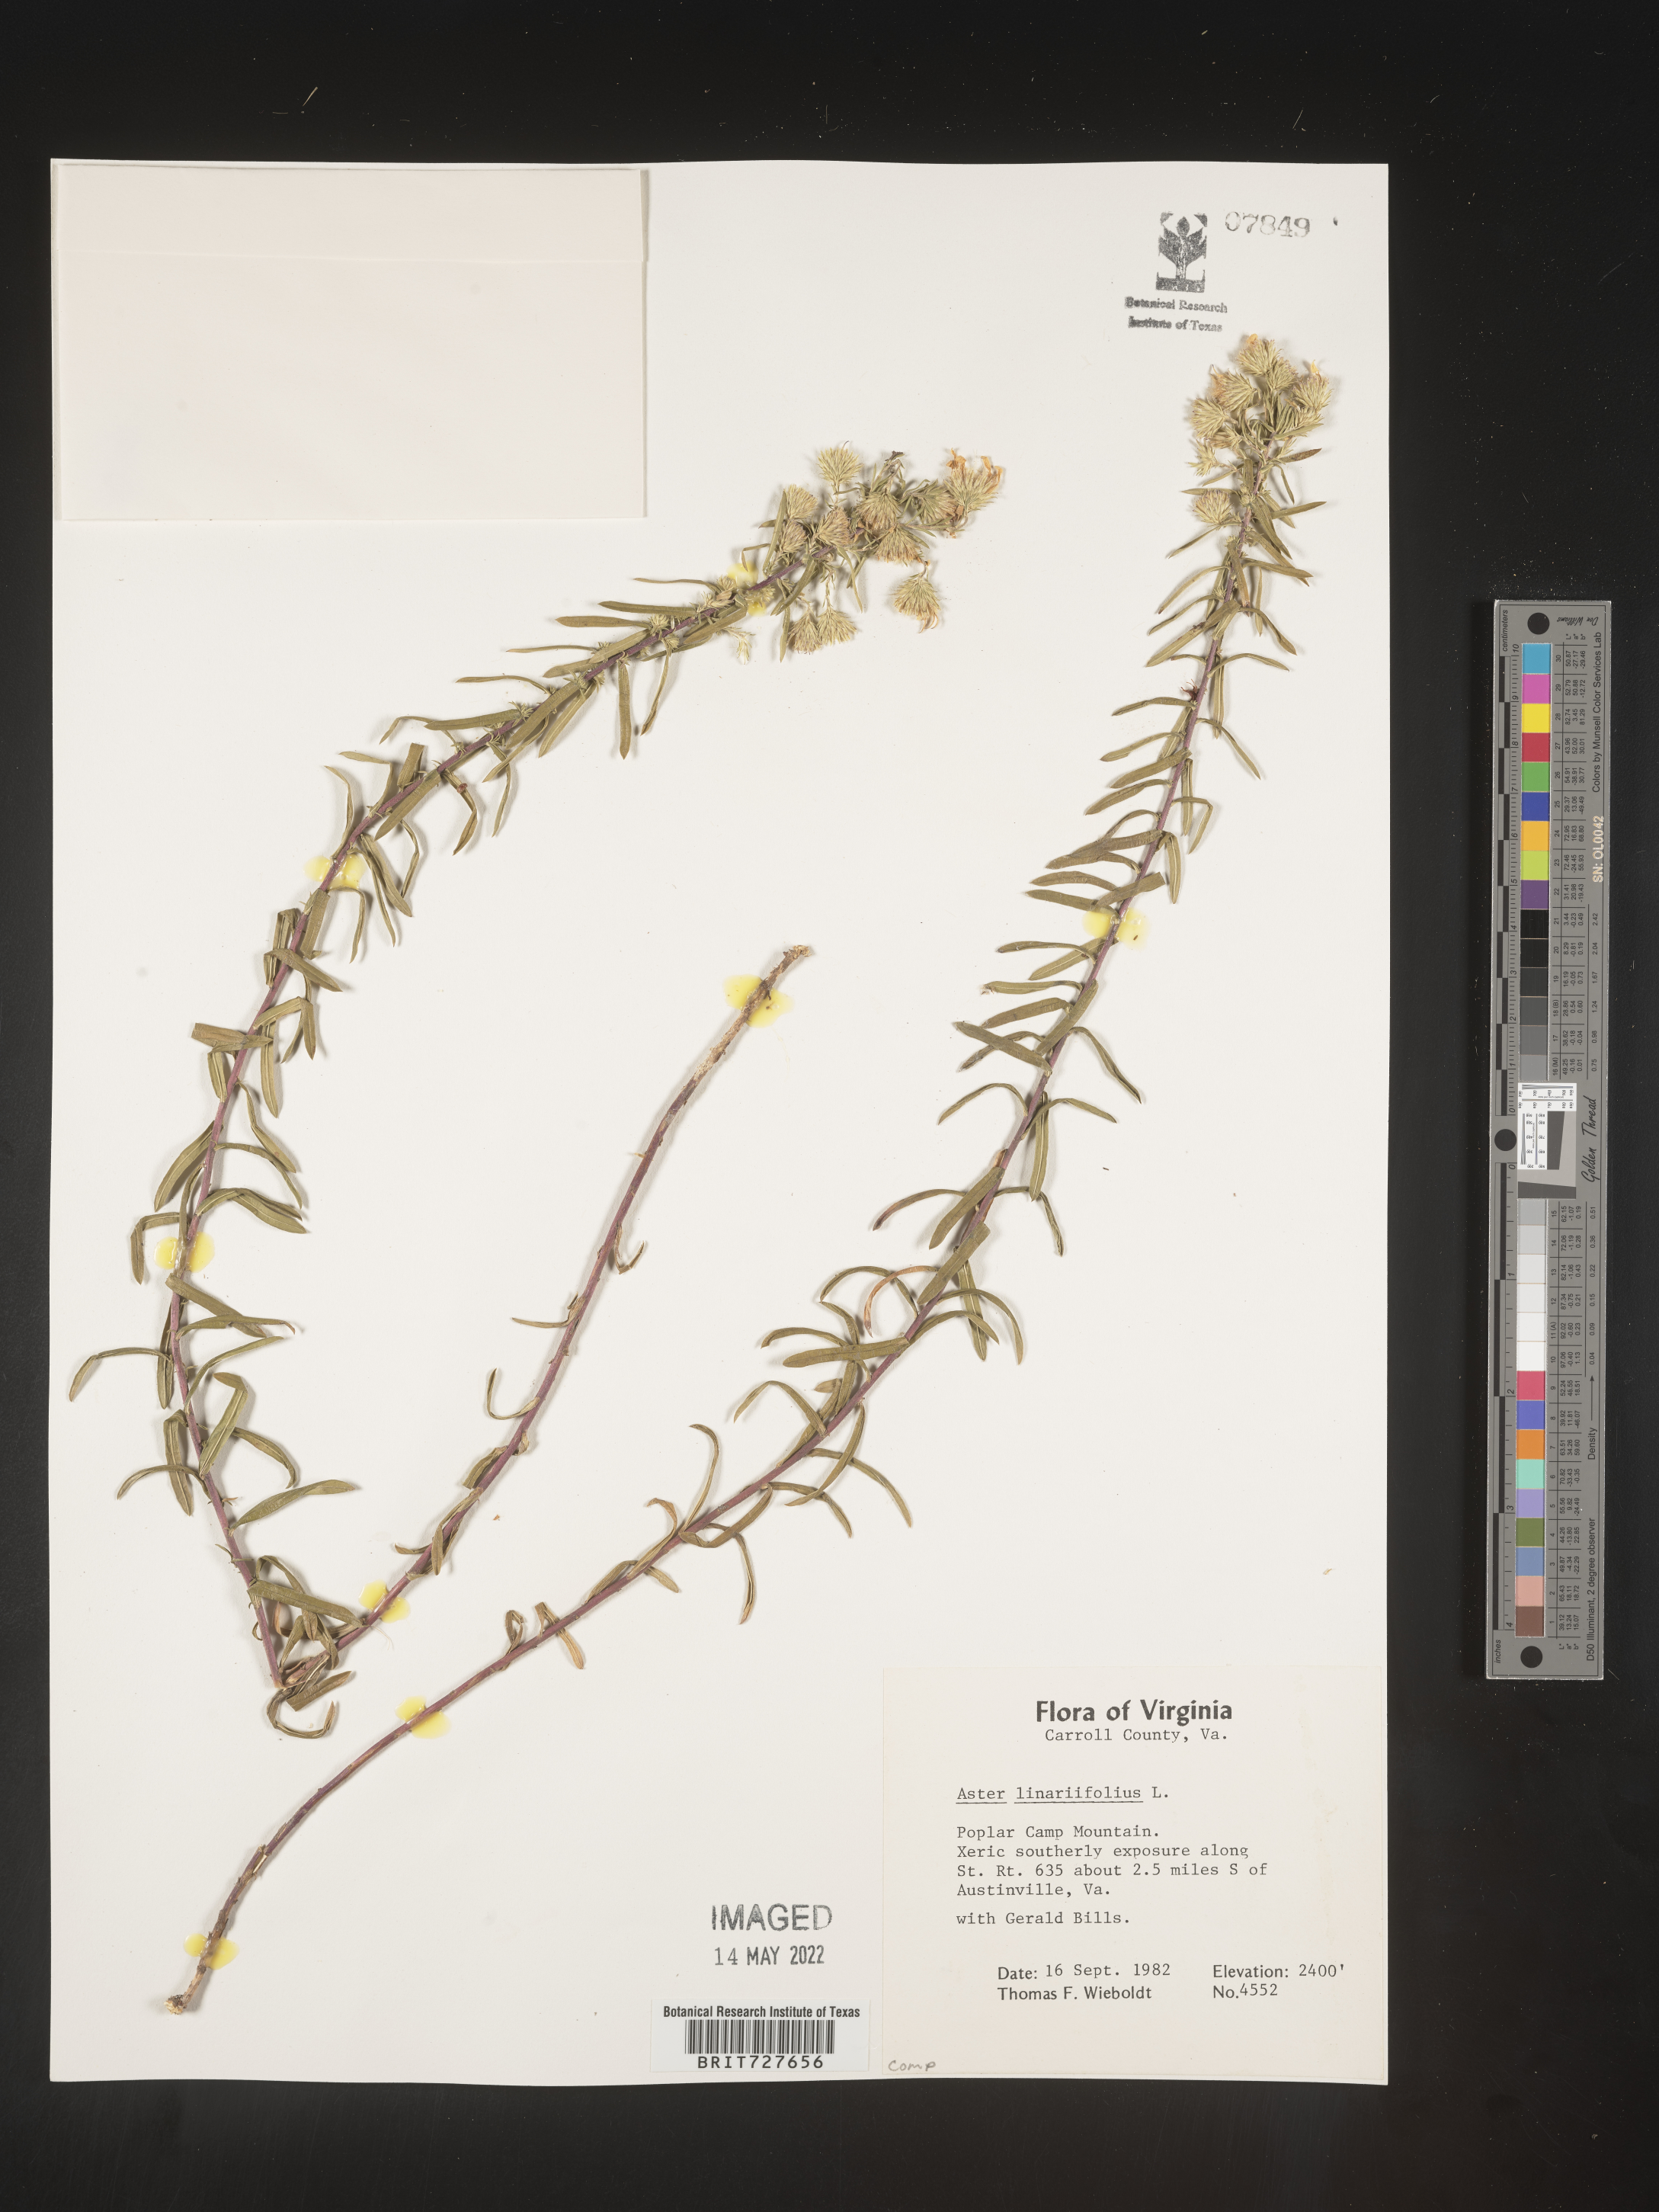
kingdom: Plantae
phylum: Tracheophyta
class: Magnoliopsida
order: Asterales
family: Asteraceae
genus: Ionactis
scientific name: Ionactis linariifolia
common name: Flax-leaf aster
